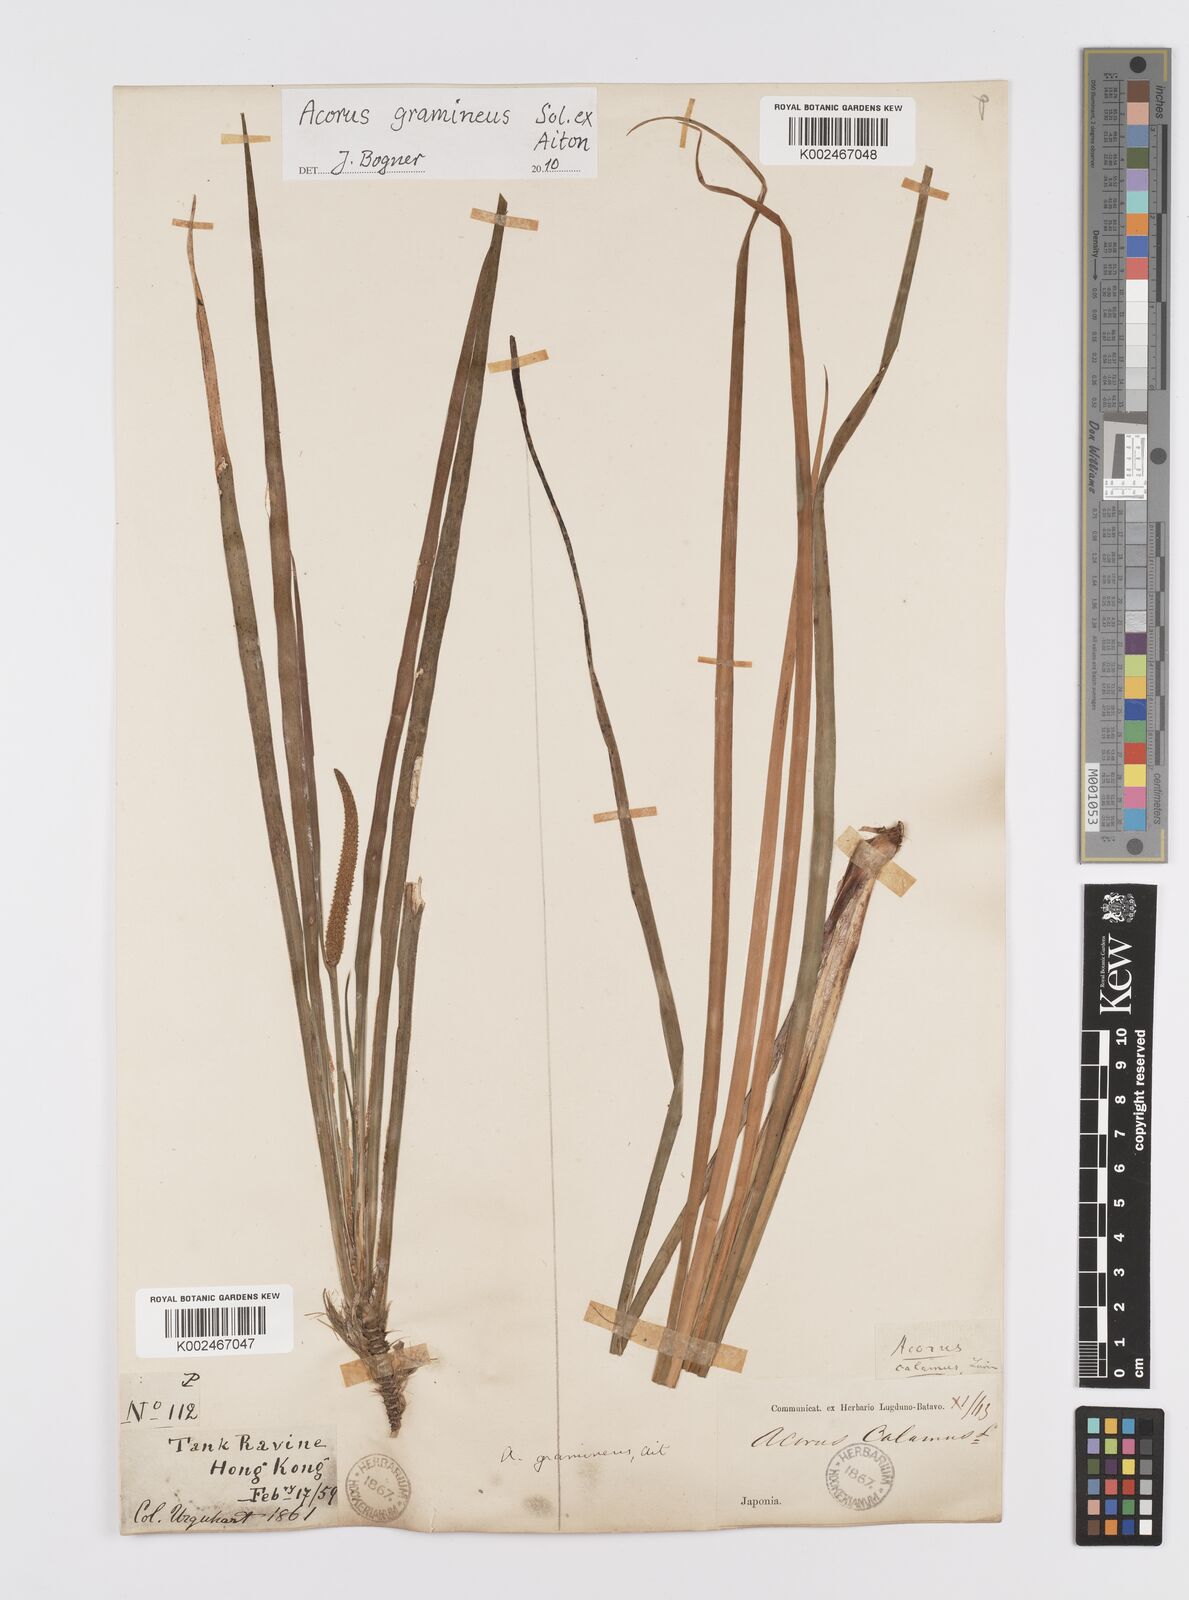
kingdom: Plantae
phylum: Tracheophyta
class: Liliopsida
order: Acorales
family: Acoraceae
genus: Acorus
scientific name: Acorus gramineus
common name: Slender sweet-flag
